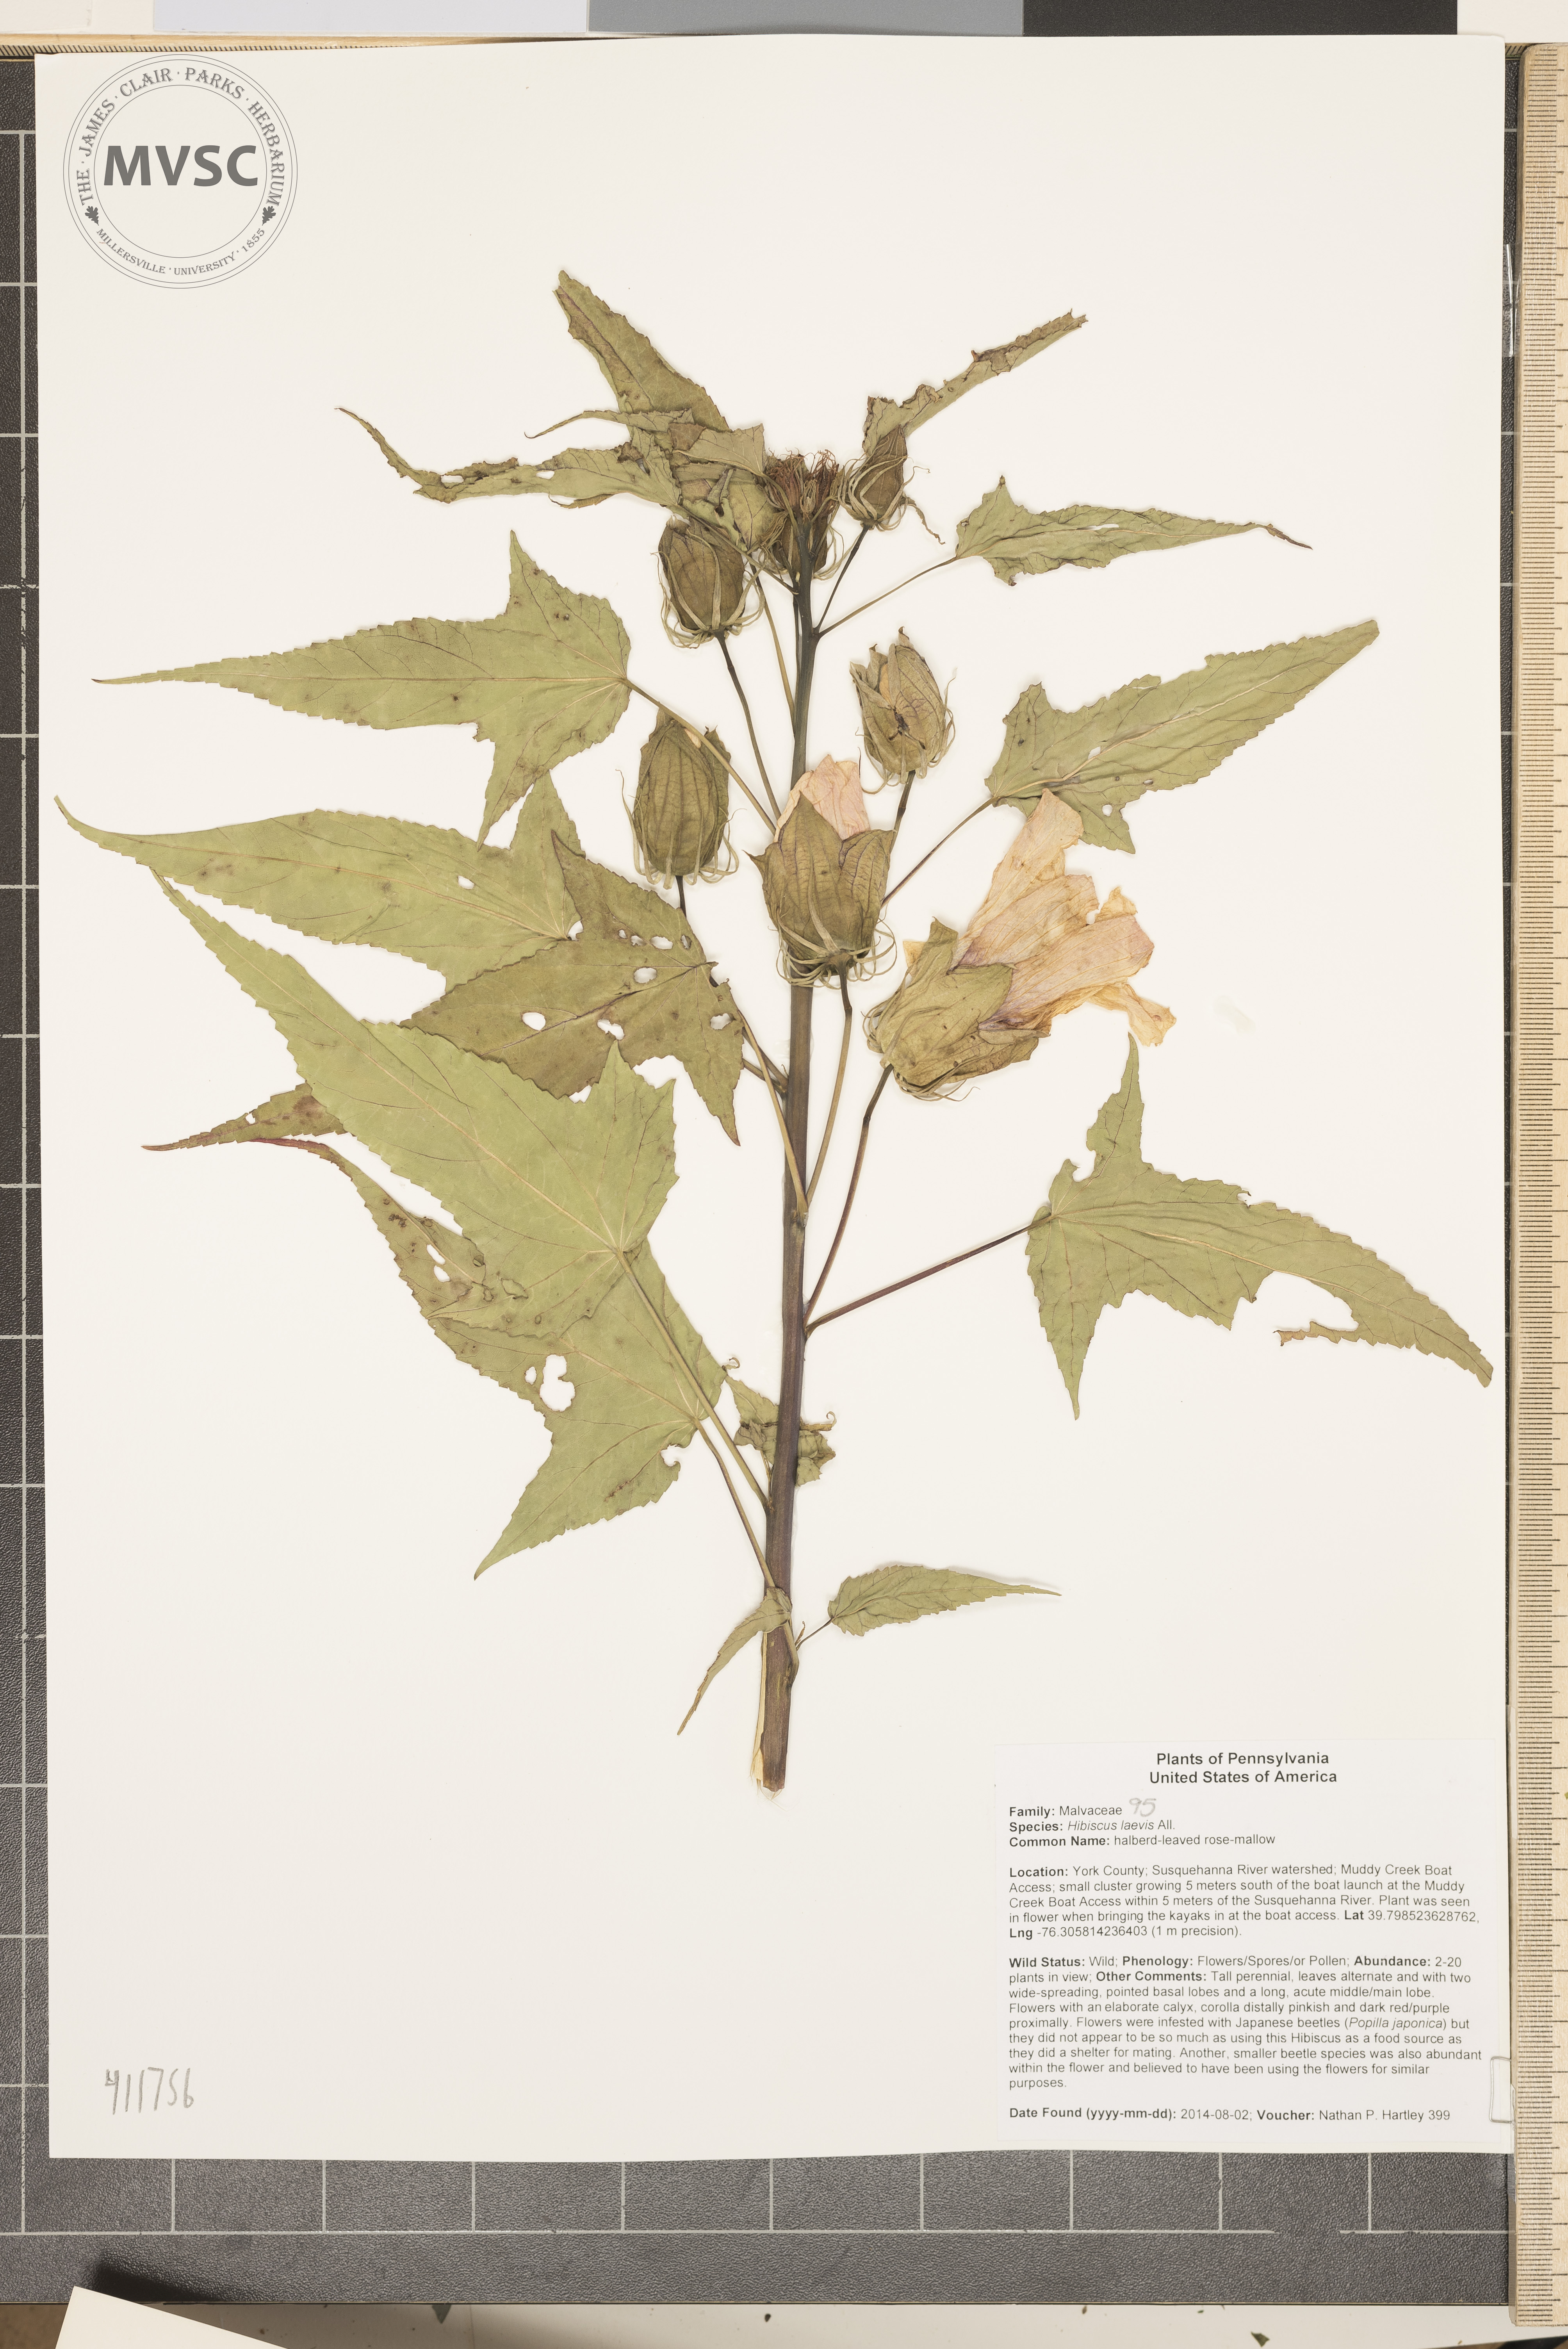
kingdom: Plantae
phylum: Tracheophyta
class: Magnoliopsida
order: Malvales
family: Malvaceae
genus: Hibiscus
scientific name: Hibiscus laevis
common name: Halberd-leaved rose-mallow
